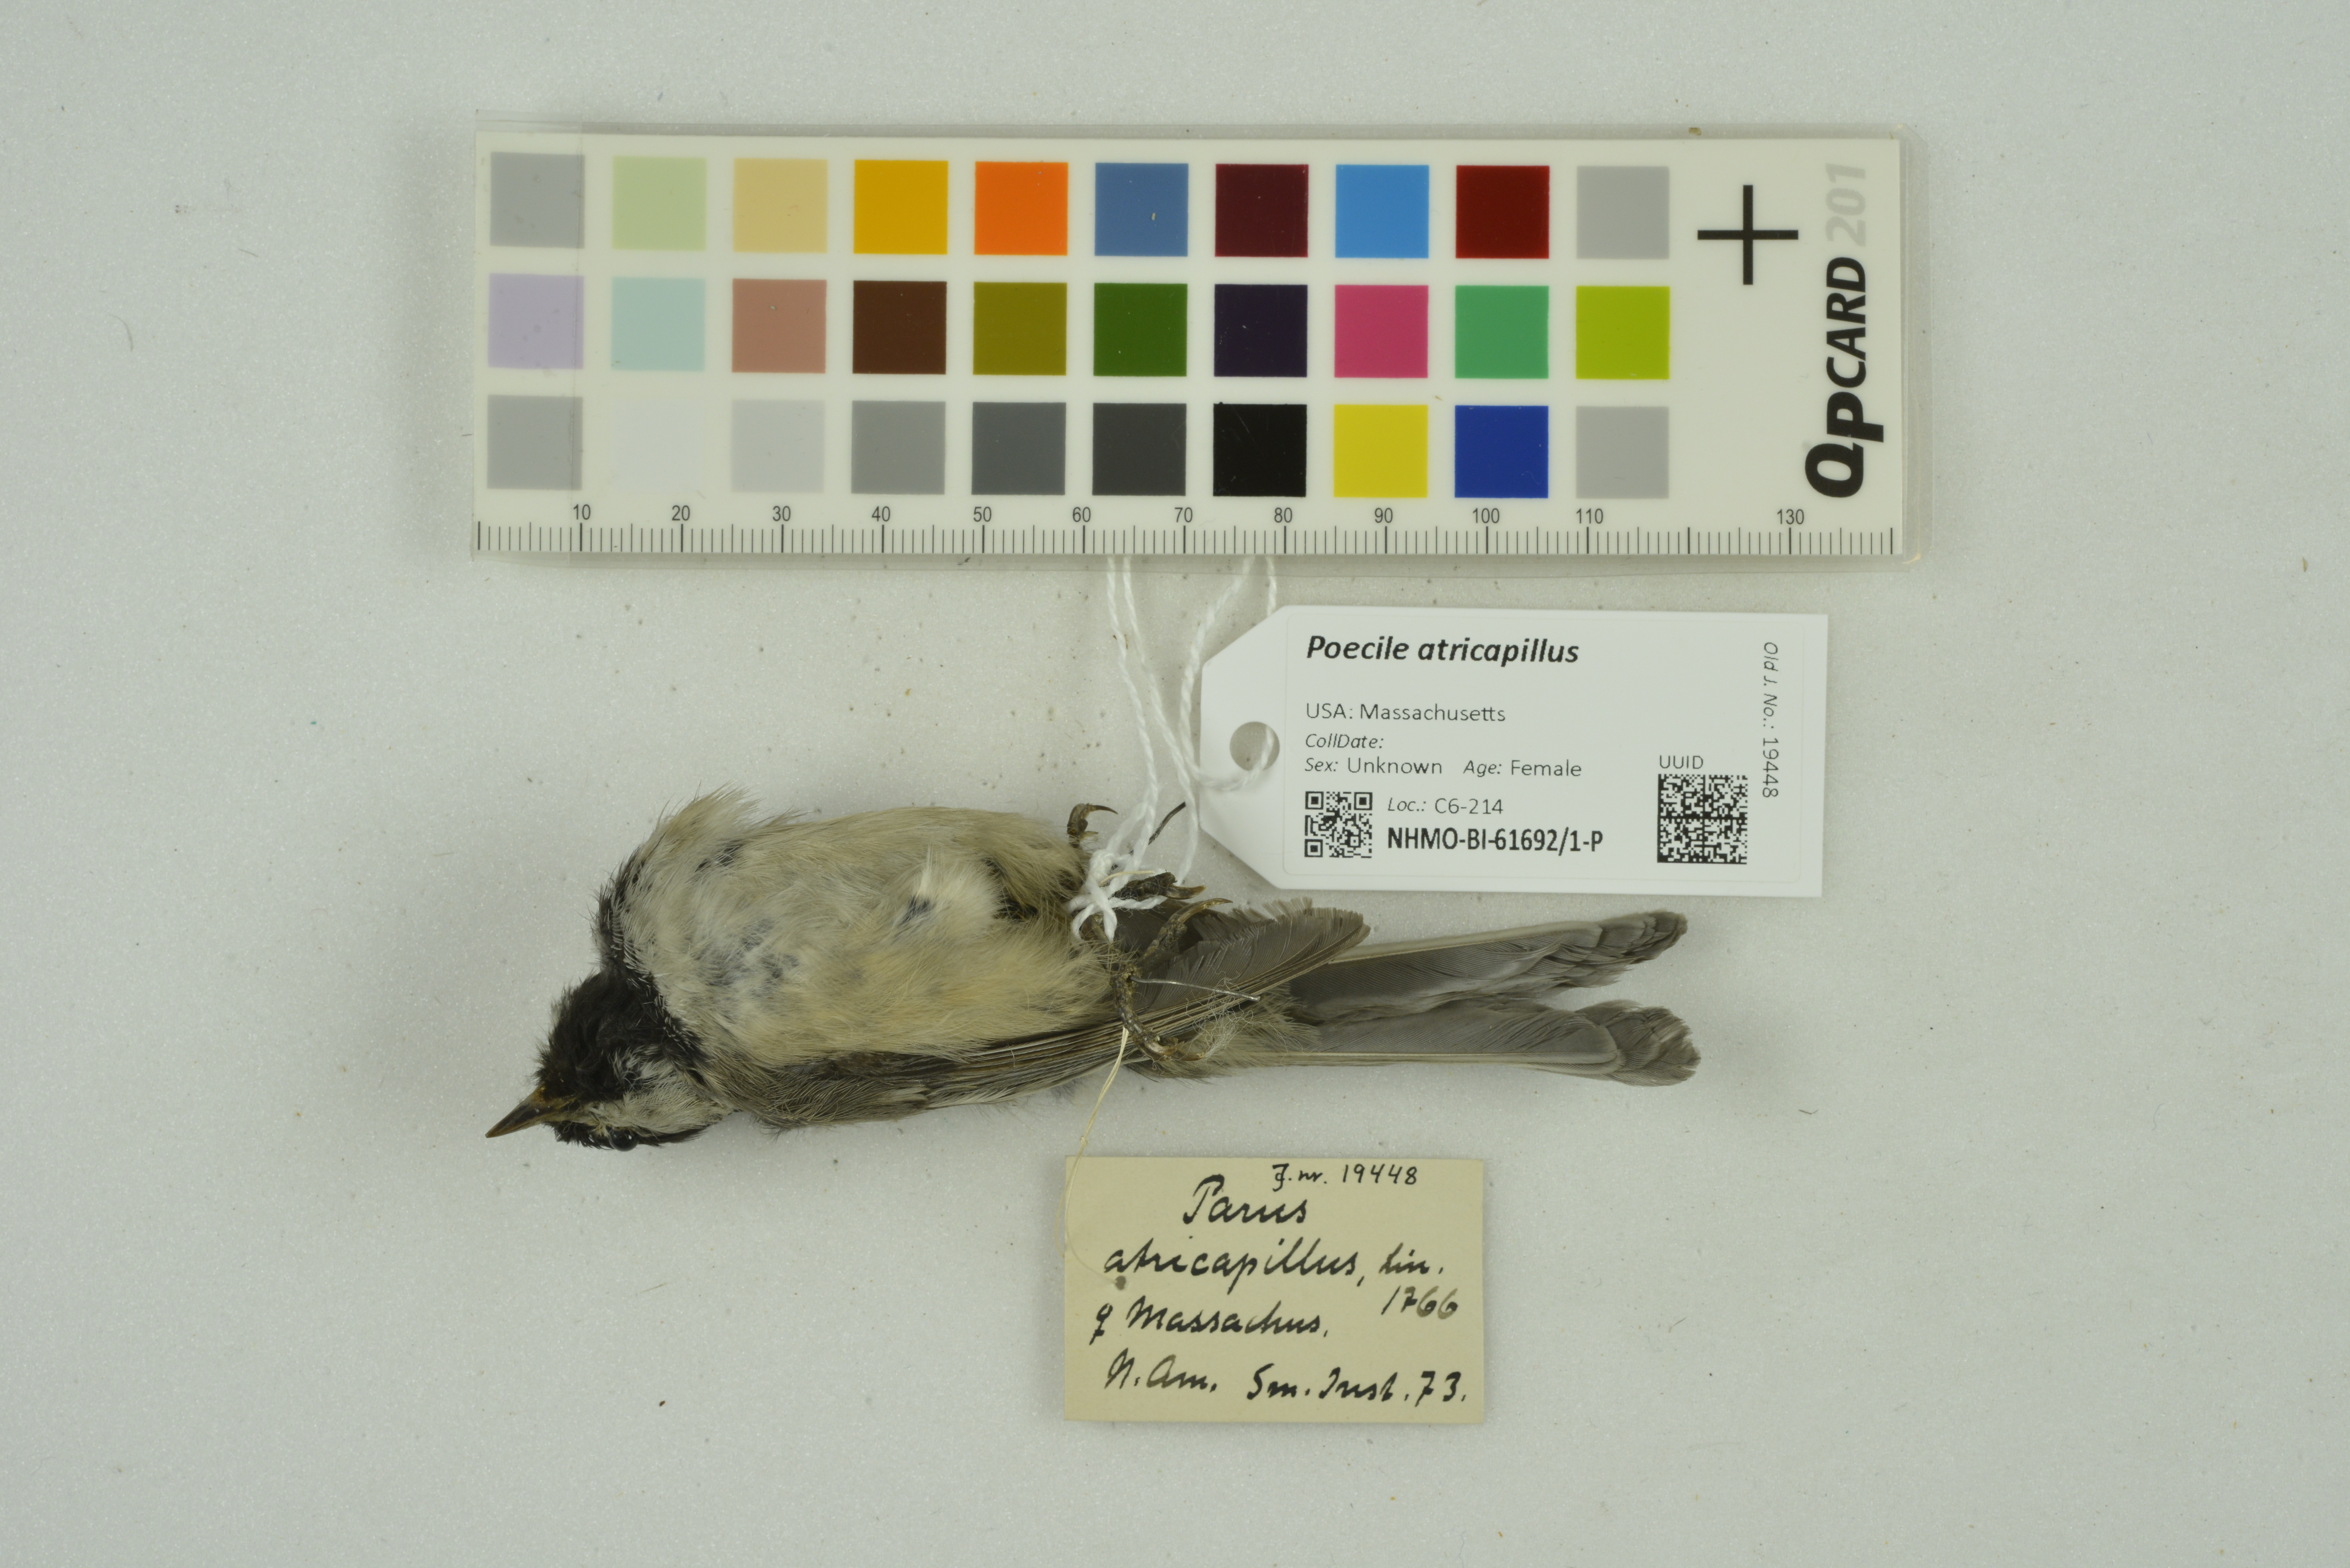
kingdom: Animalia
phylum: Chordata
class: Aves
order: Passeriformes
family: Paridae
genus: Poecile
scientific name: Poecile atricapillus
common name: Black-capped chickadee
